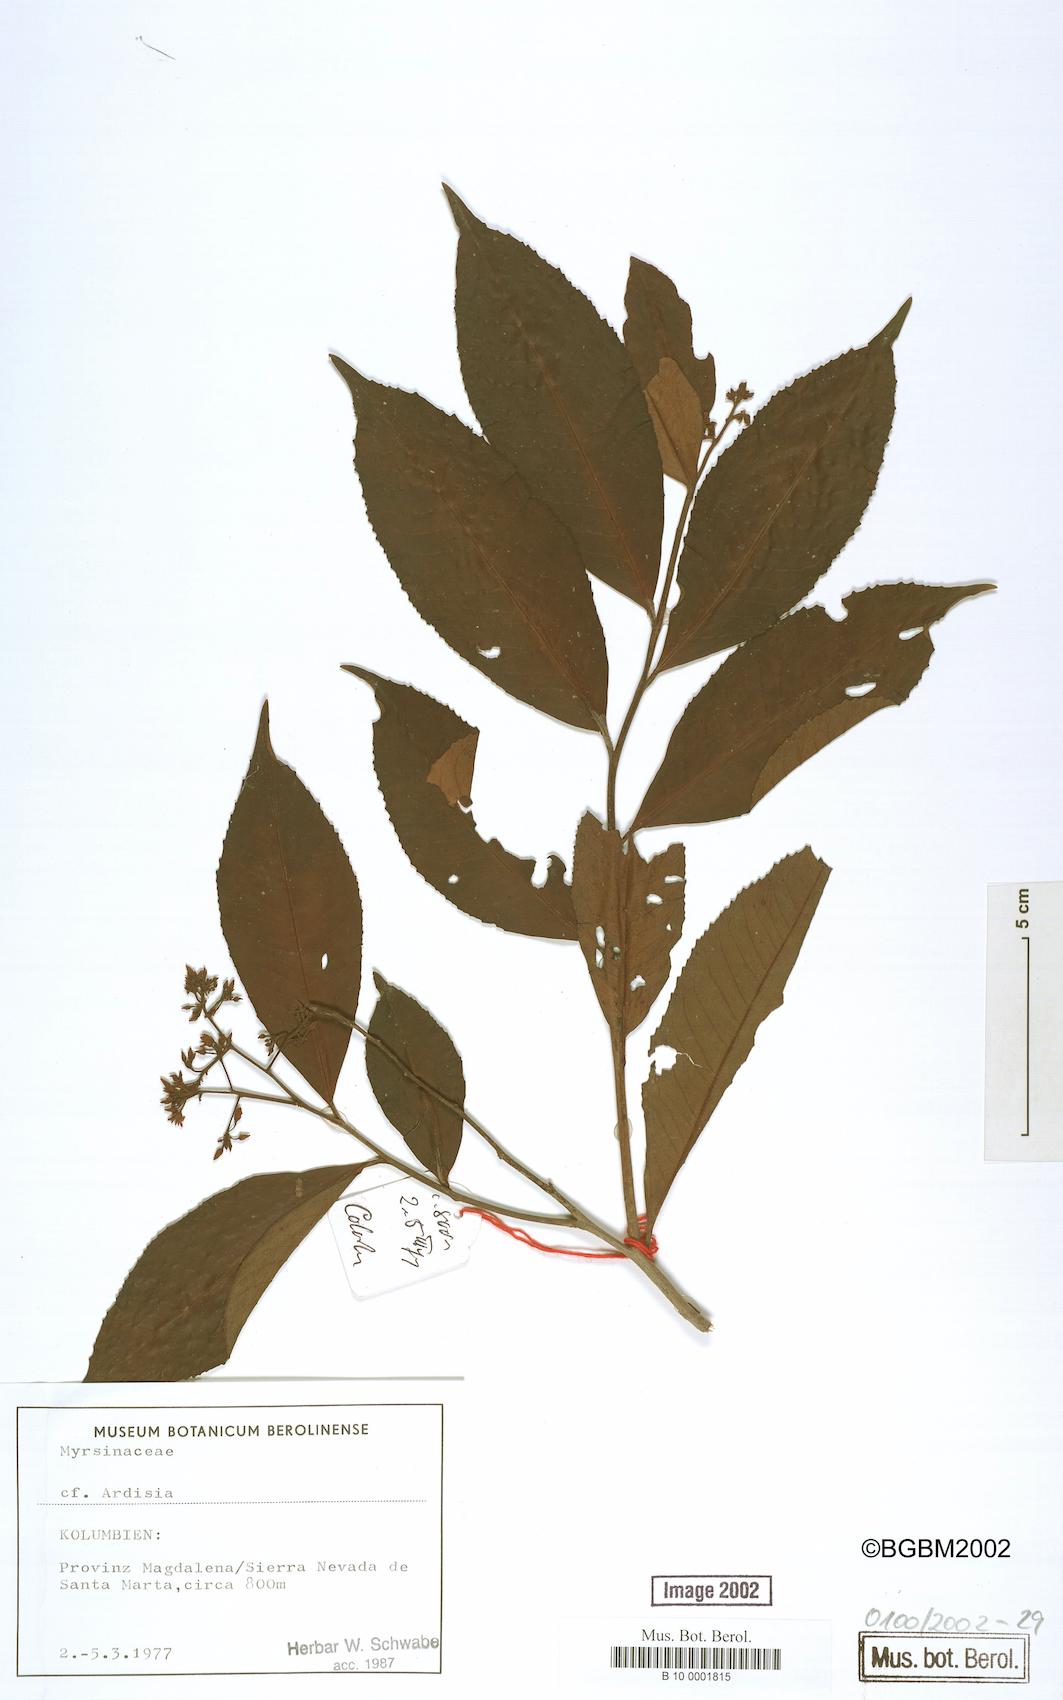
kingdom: Plantae
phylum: Tracheophyta
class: Magnoliopsida
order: Ericales
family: Primulaceae
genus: Ardisia
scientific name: Ardisia
